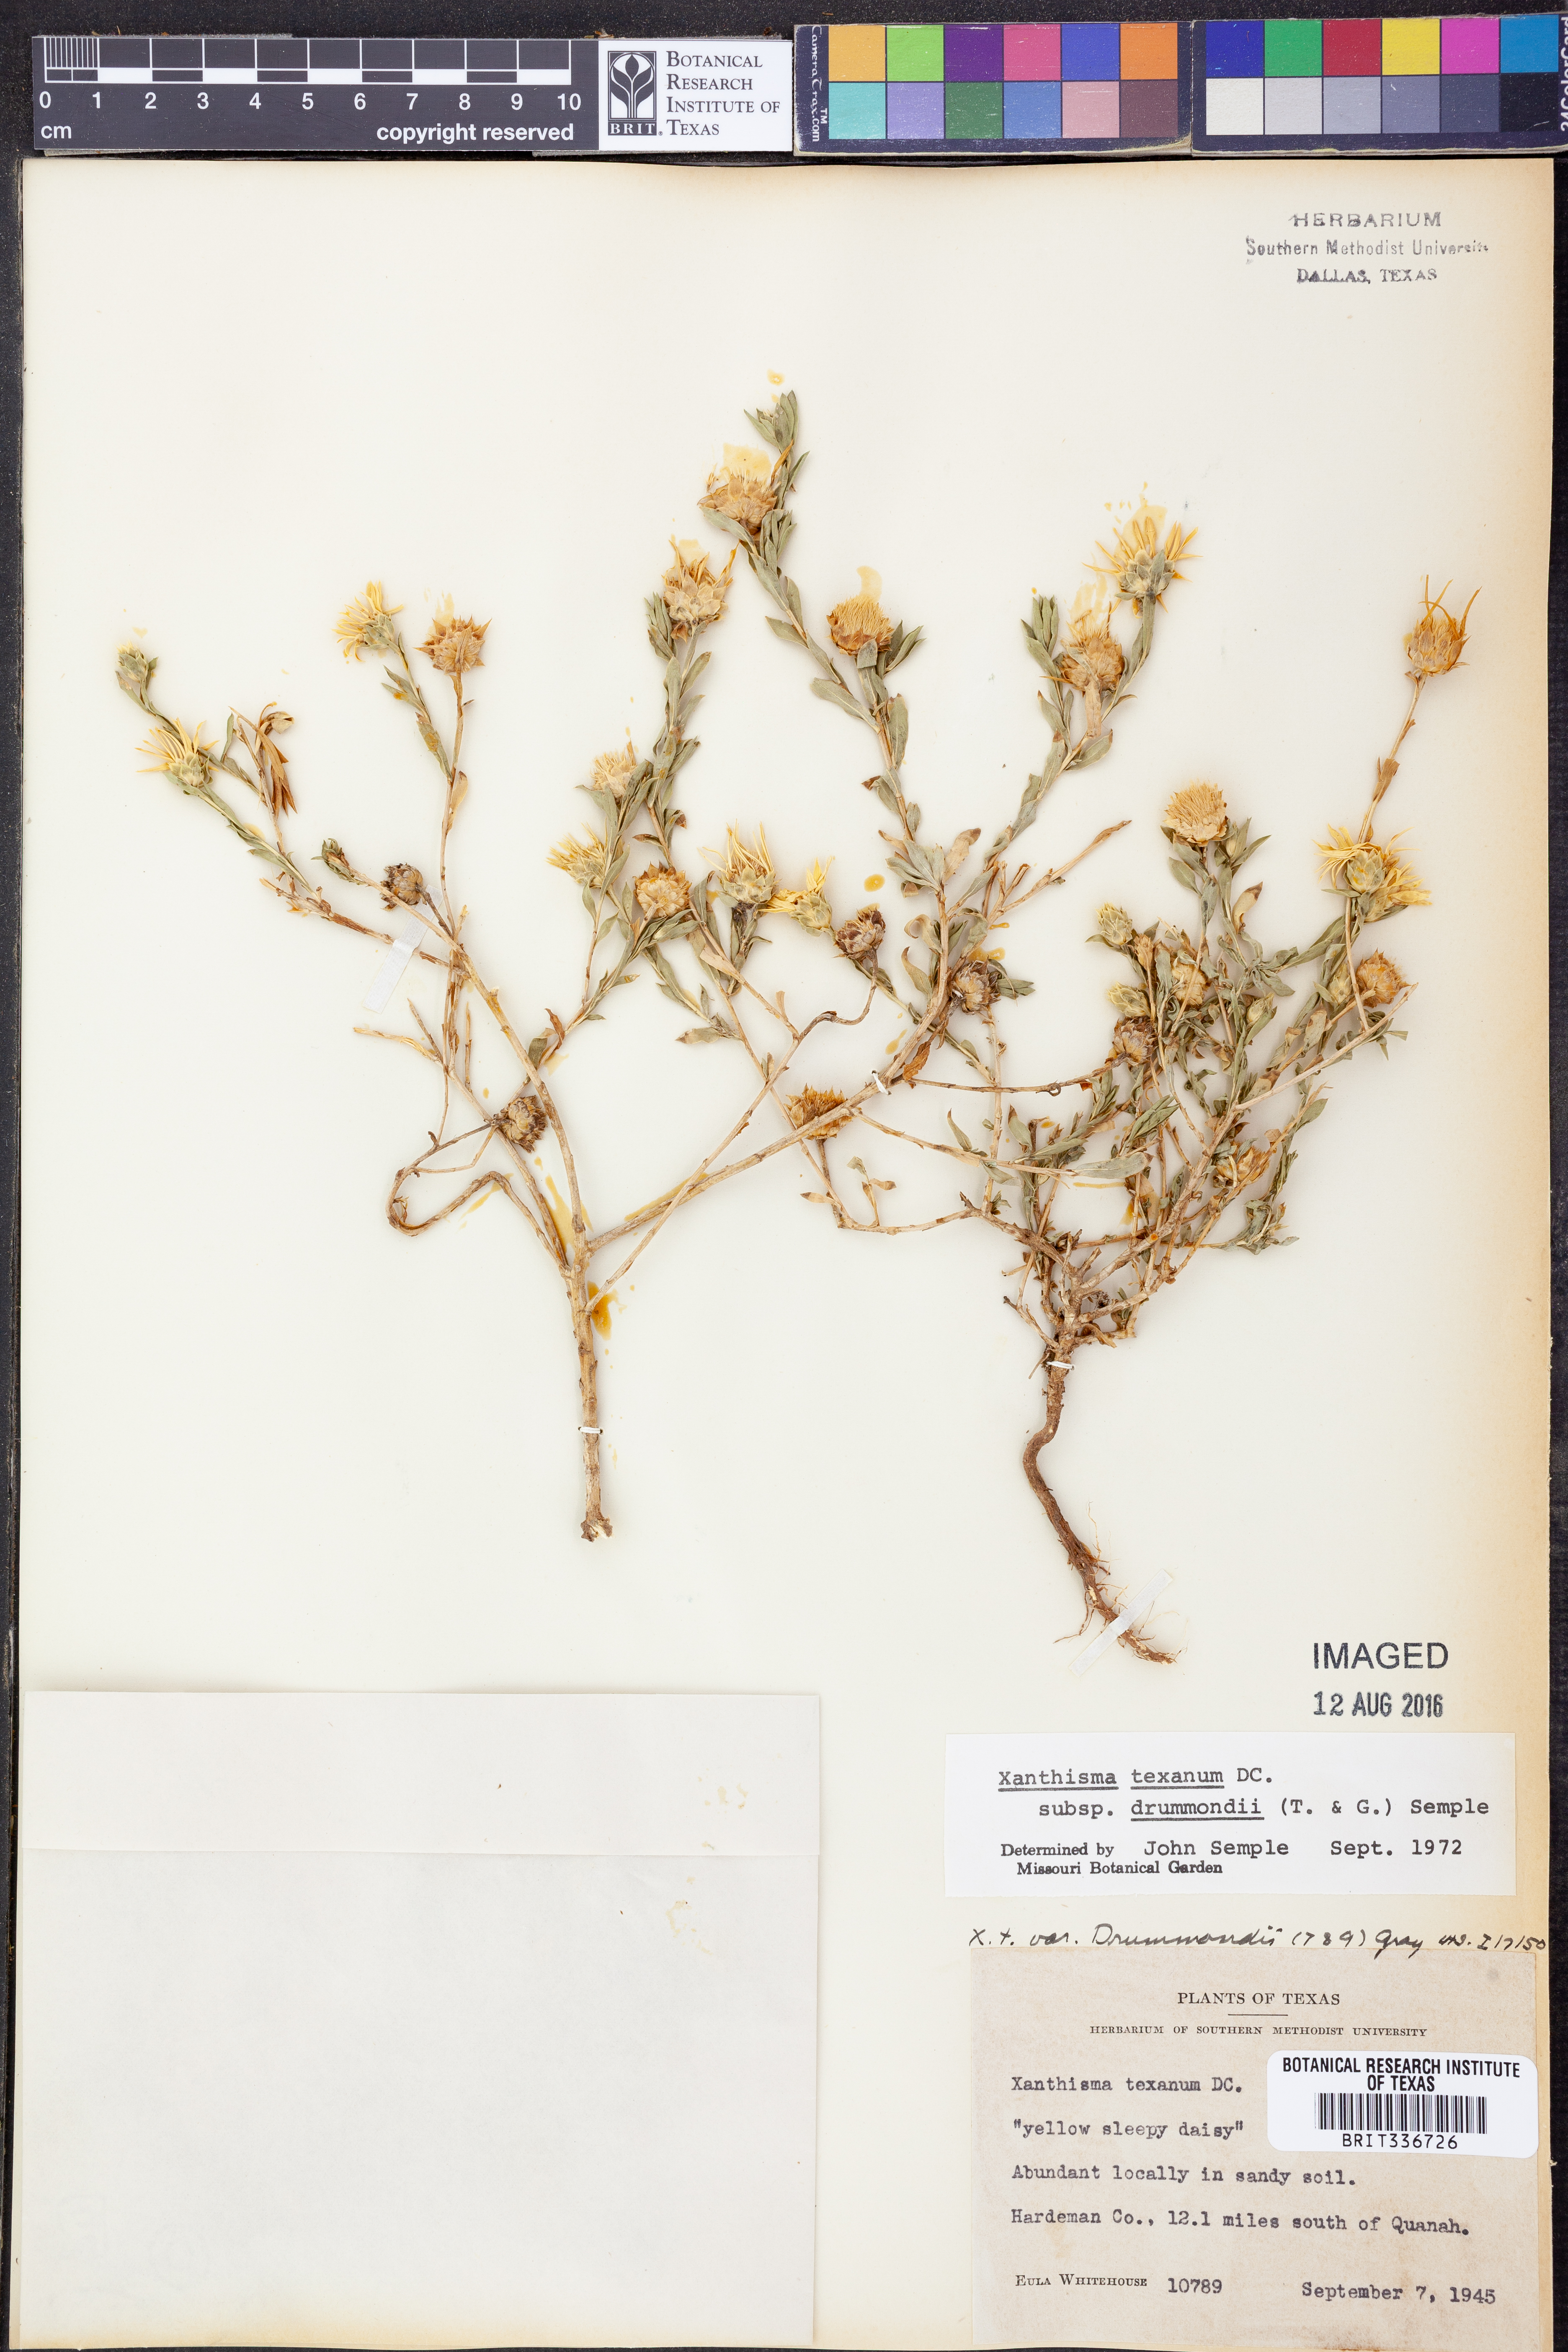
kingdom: Plantae
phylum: Tracheophyta
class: Magnoliopsida
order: Asterales
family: Asteraceae
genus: Xanthisma
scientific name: Xanthisma texanum
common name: Texas sleepy daisy
